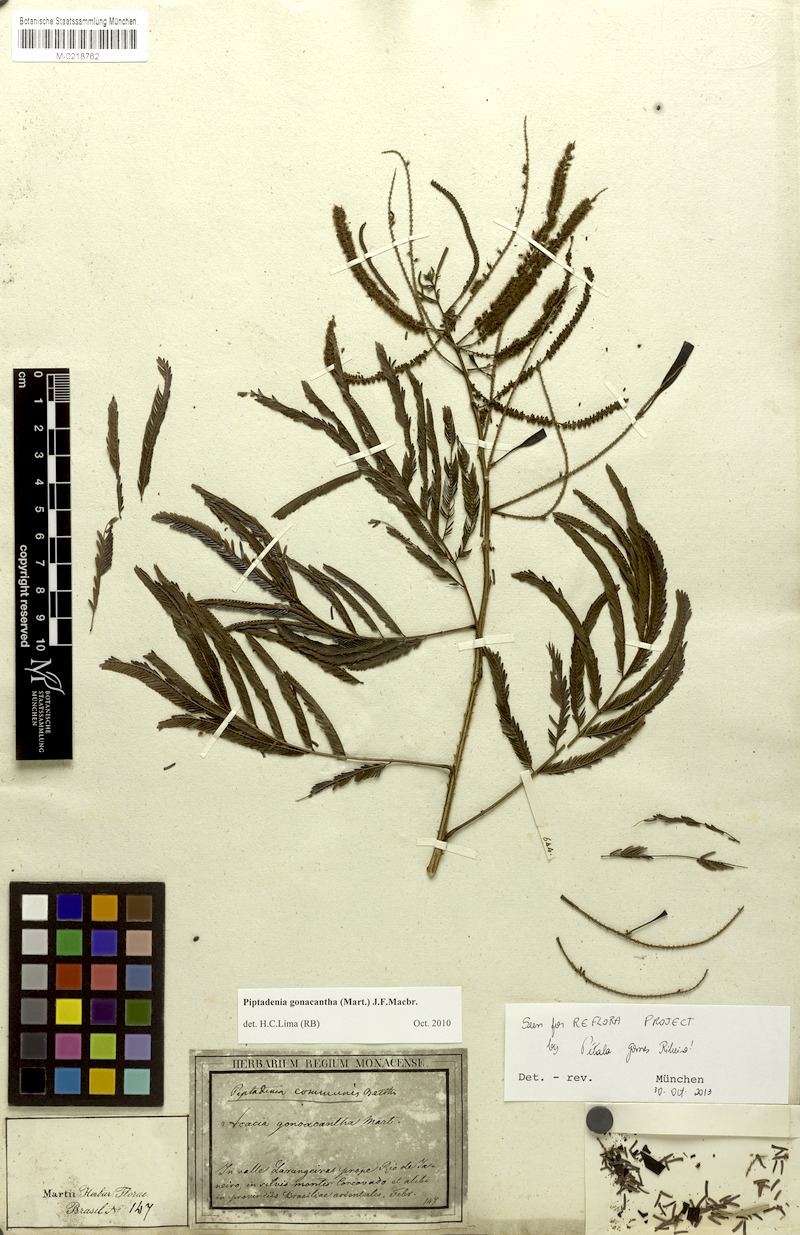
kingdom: Plantae
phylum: Tracheophyta
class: Magnoliopsida
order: Fabales
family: Fabaceae
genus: Piptadenia
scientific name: Piptadenia gonoacantha
